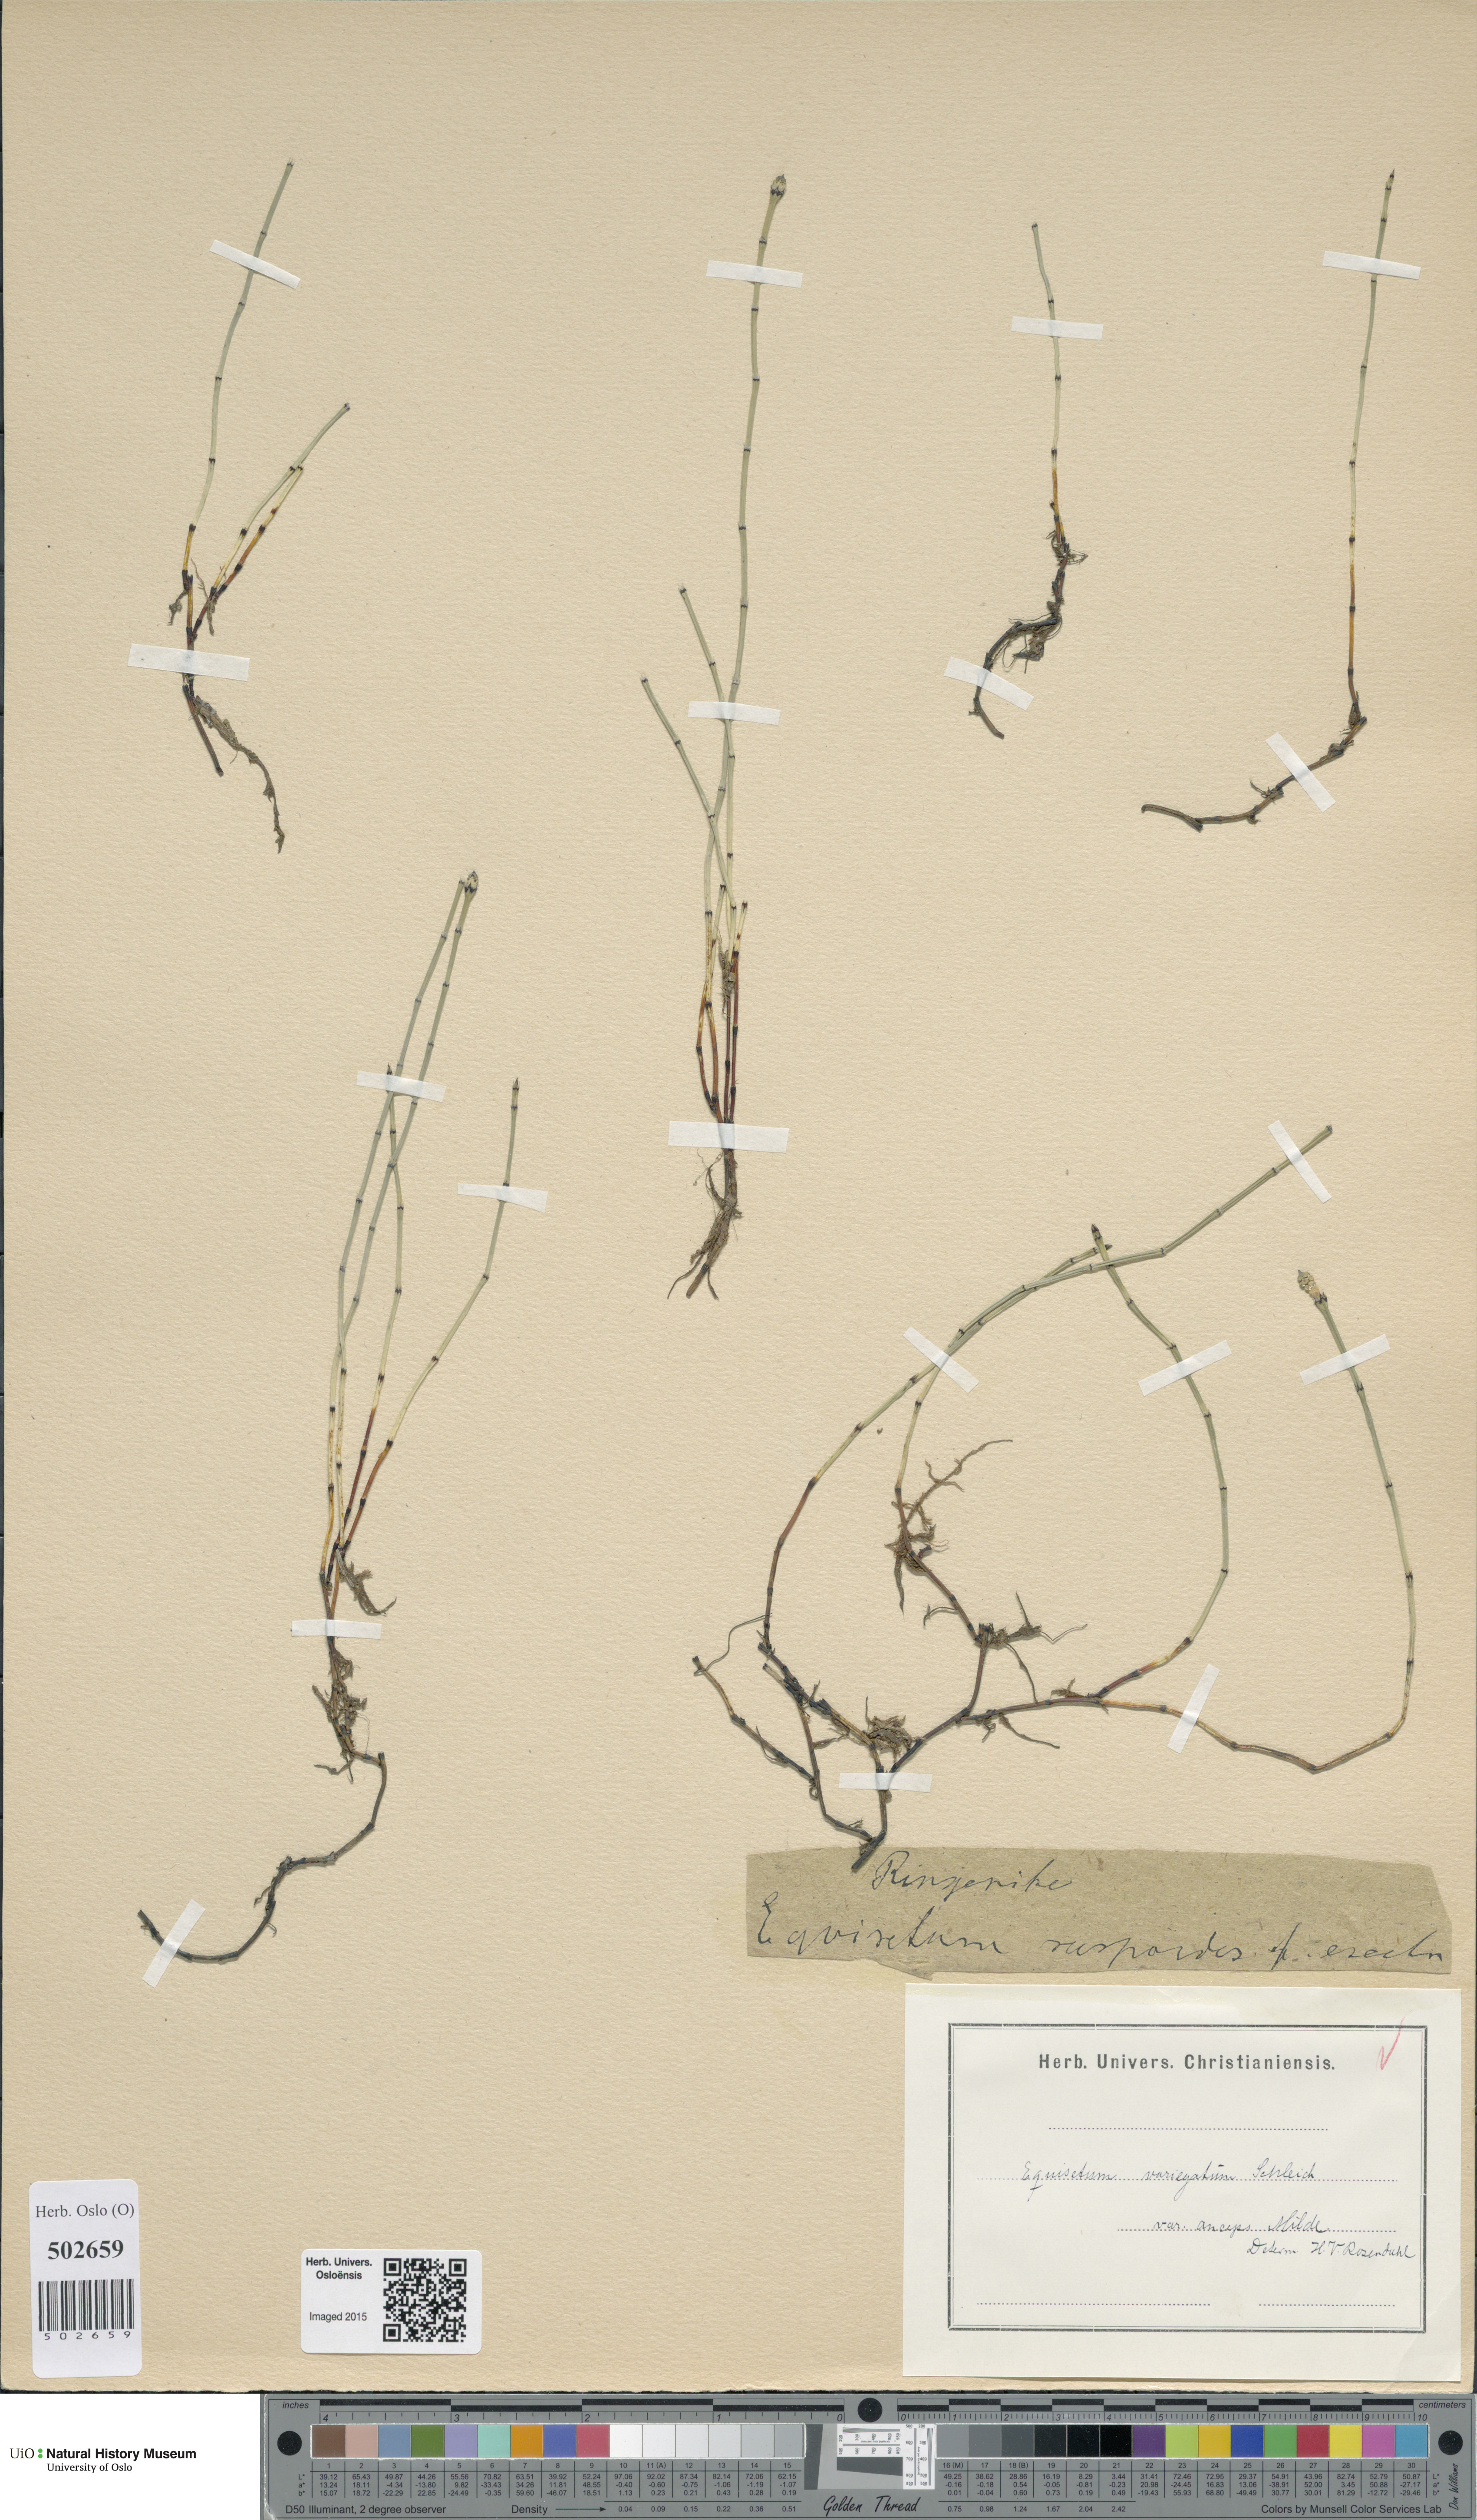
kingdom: Plantae
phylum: Tracheophyta
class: Polypodiopsida
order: Equisetales
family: Equisetaceae
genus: Equisetum
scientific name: Equisetum variegatum
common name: Variegated horsetail
